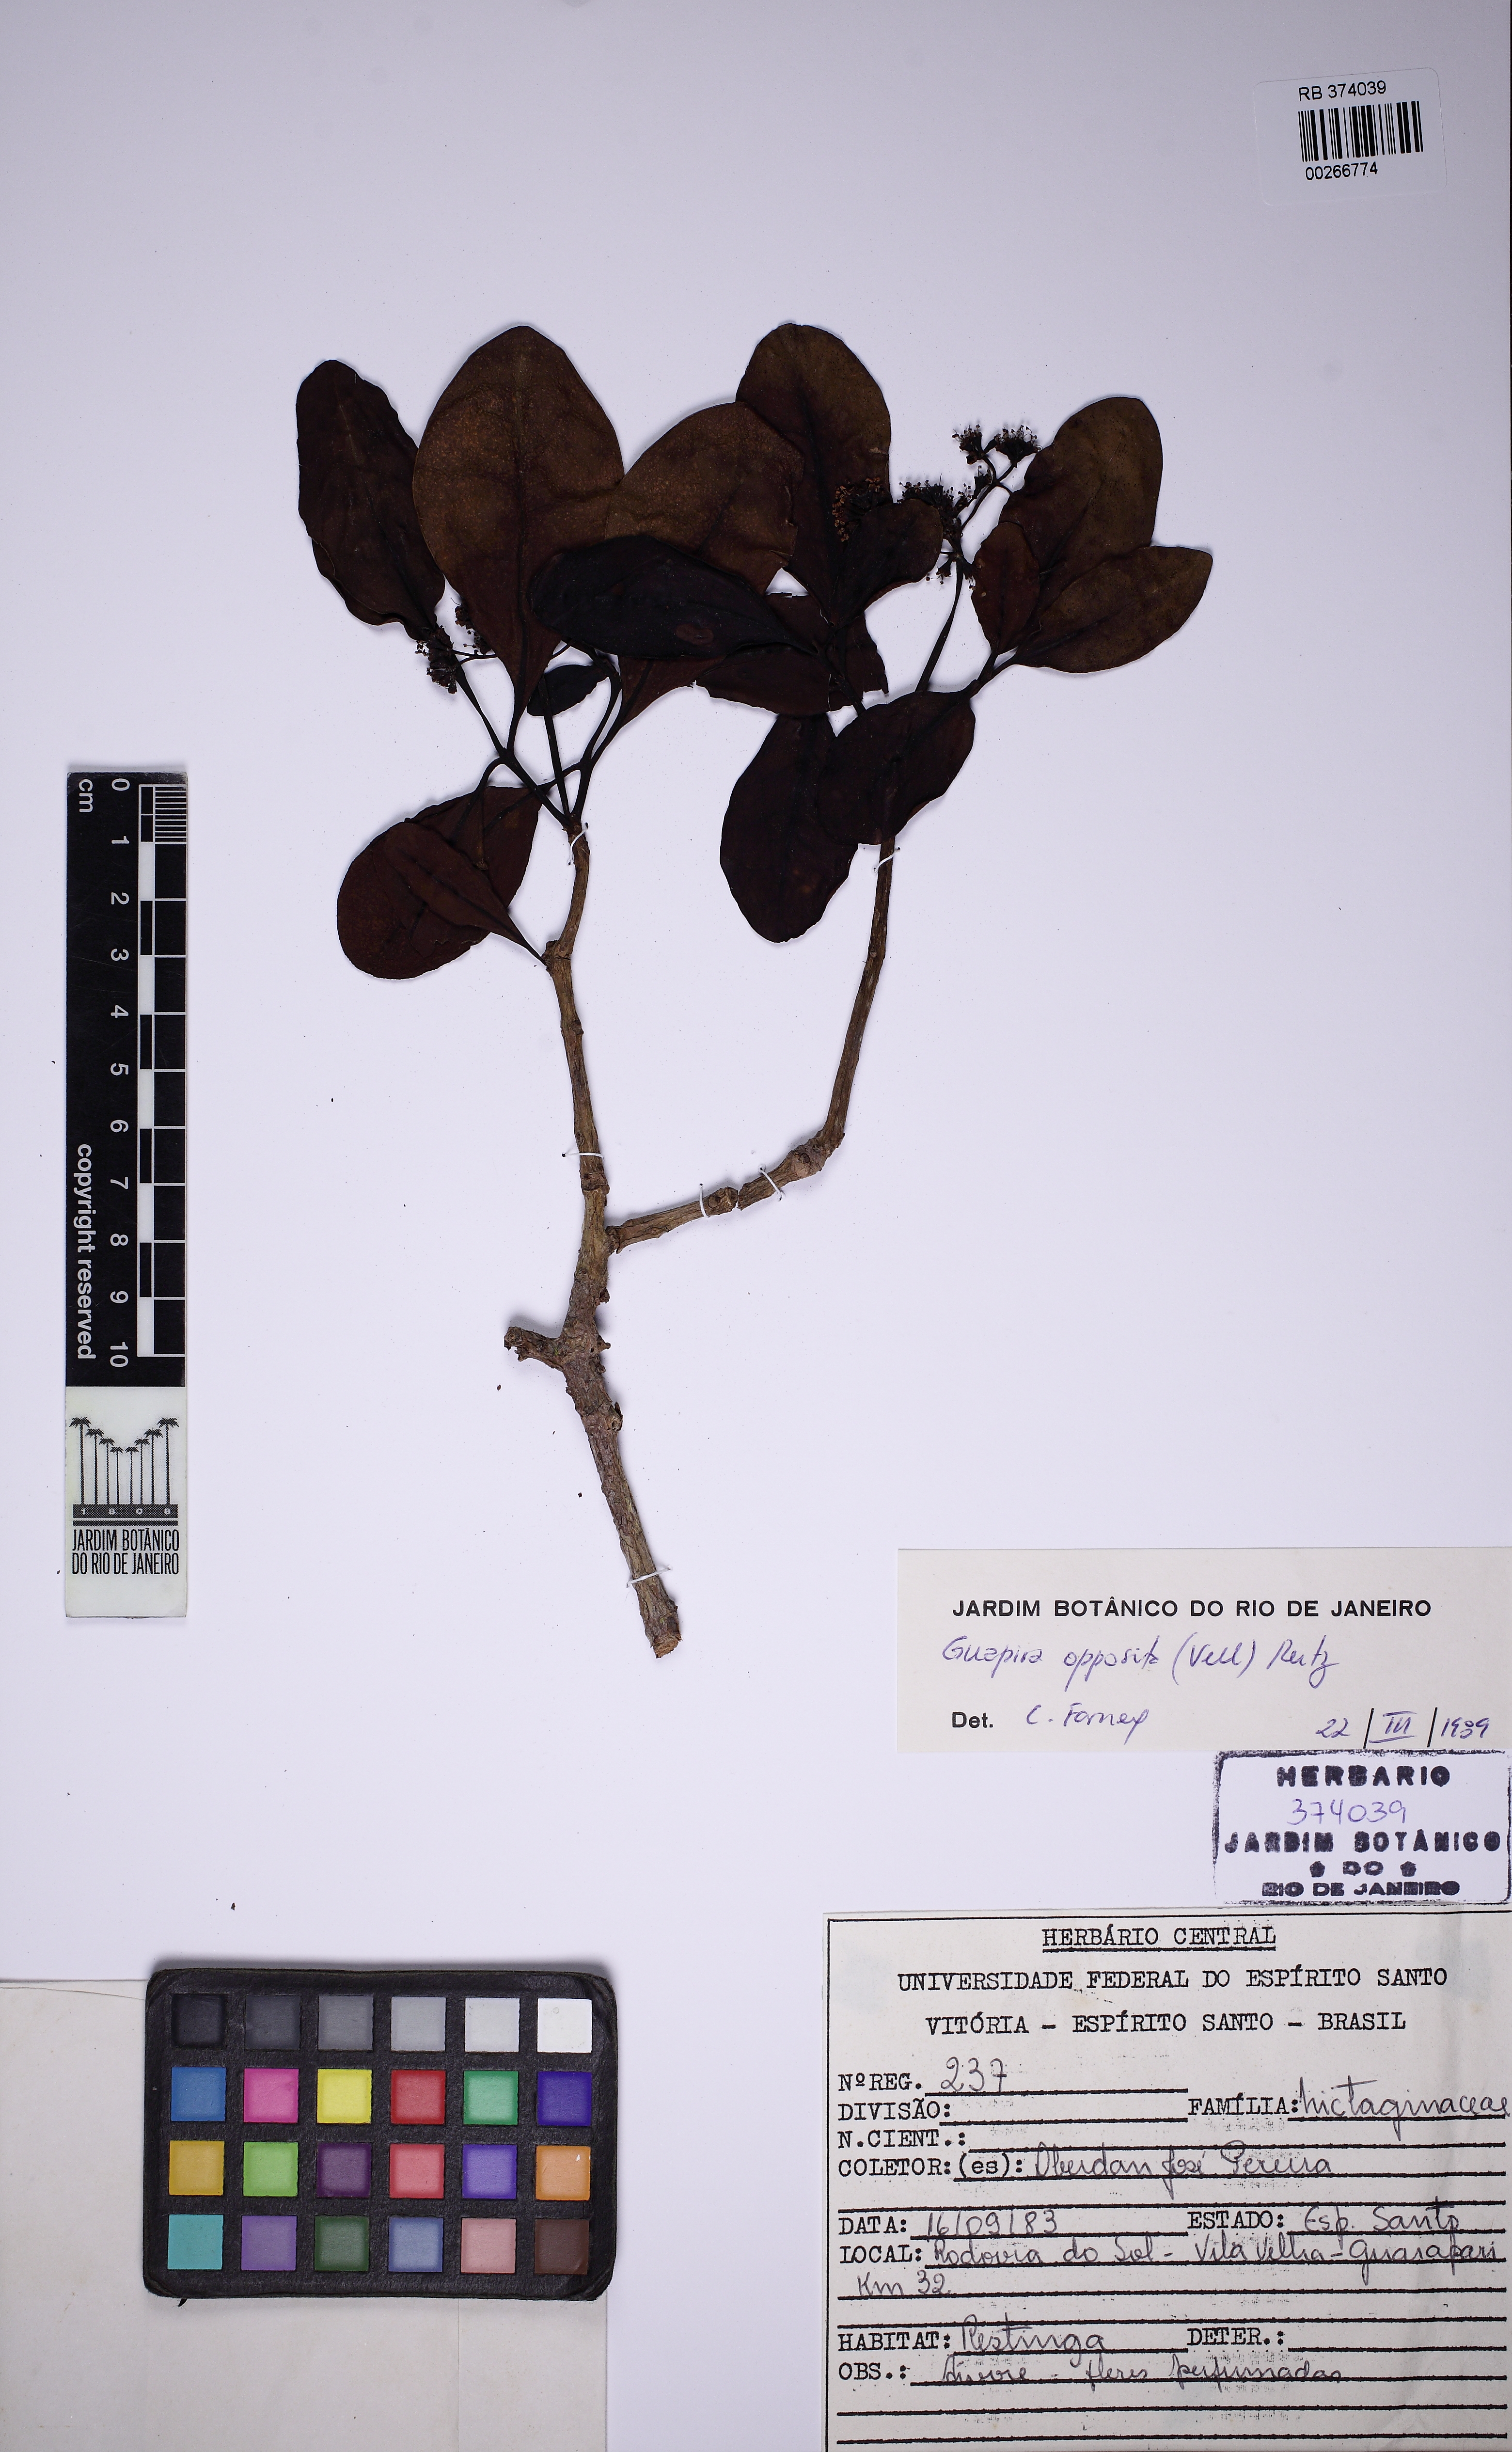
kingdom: Plantae
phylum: Tracheophyta
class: Magnoliopsida
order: Caryophyllales
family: Nyctaginaceae
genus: Guapira
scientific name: Guapira opposita
